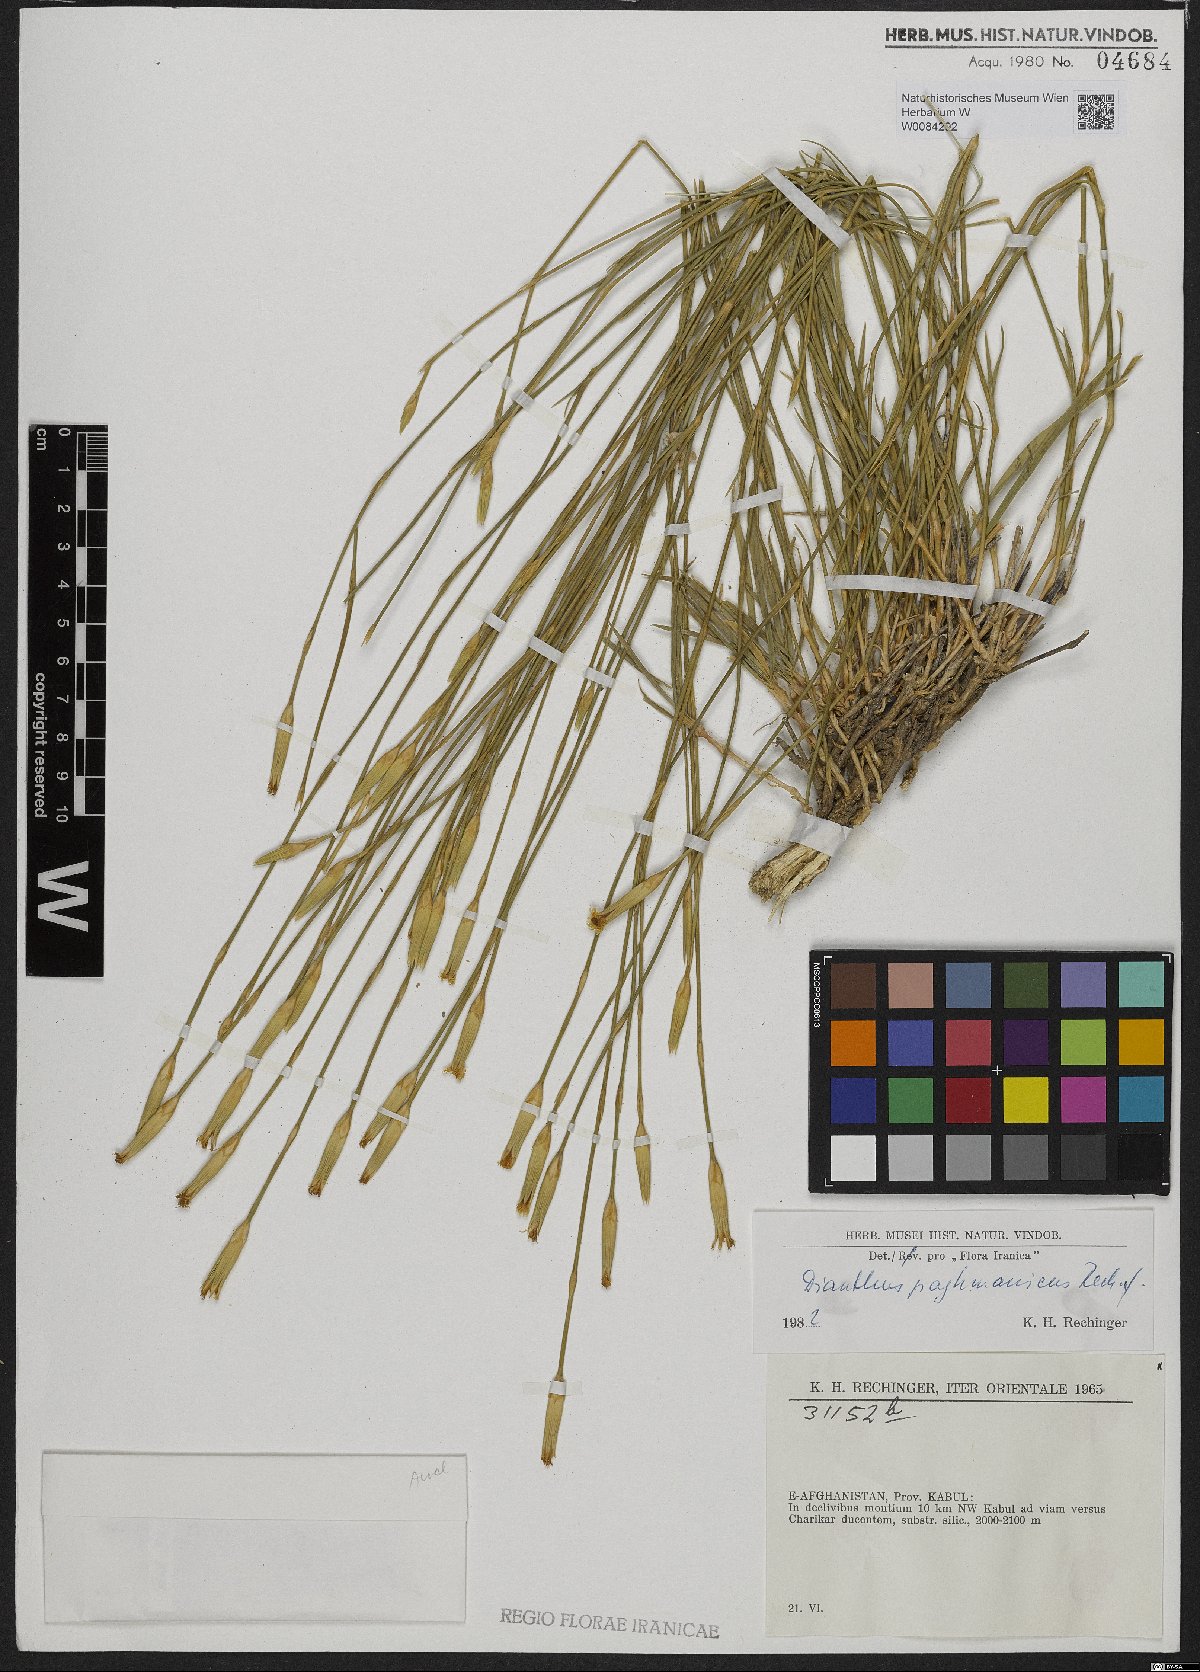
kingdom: Plantae
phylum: Tracheophyta
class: Magnoliopsida
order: Caryophyllales
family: Caryophyllaceae
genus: Dianthus
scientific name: Dianthus paghmanicus
